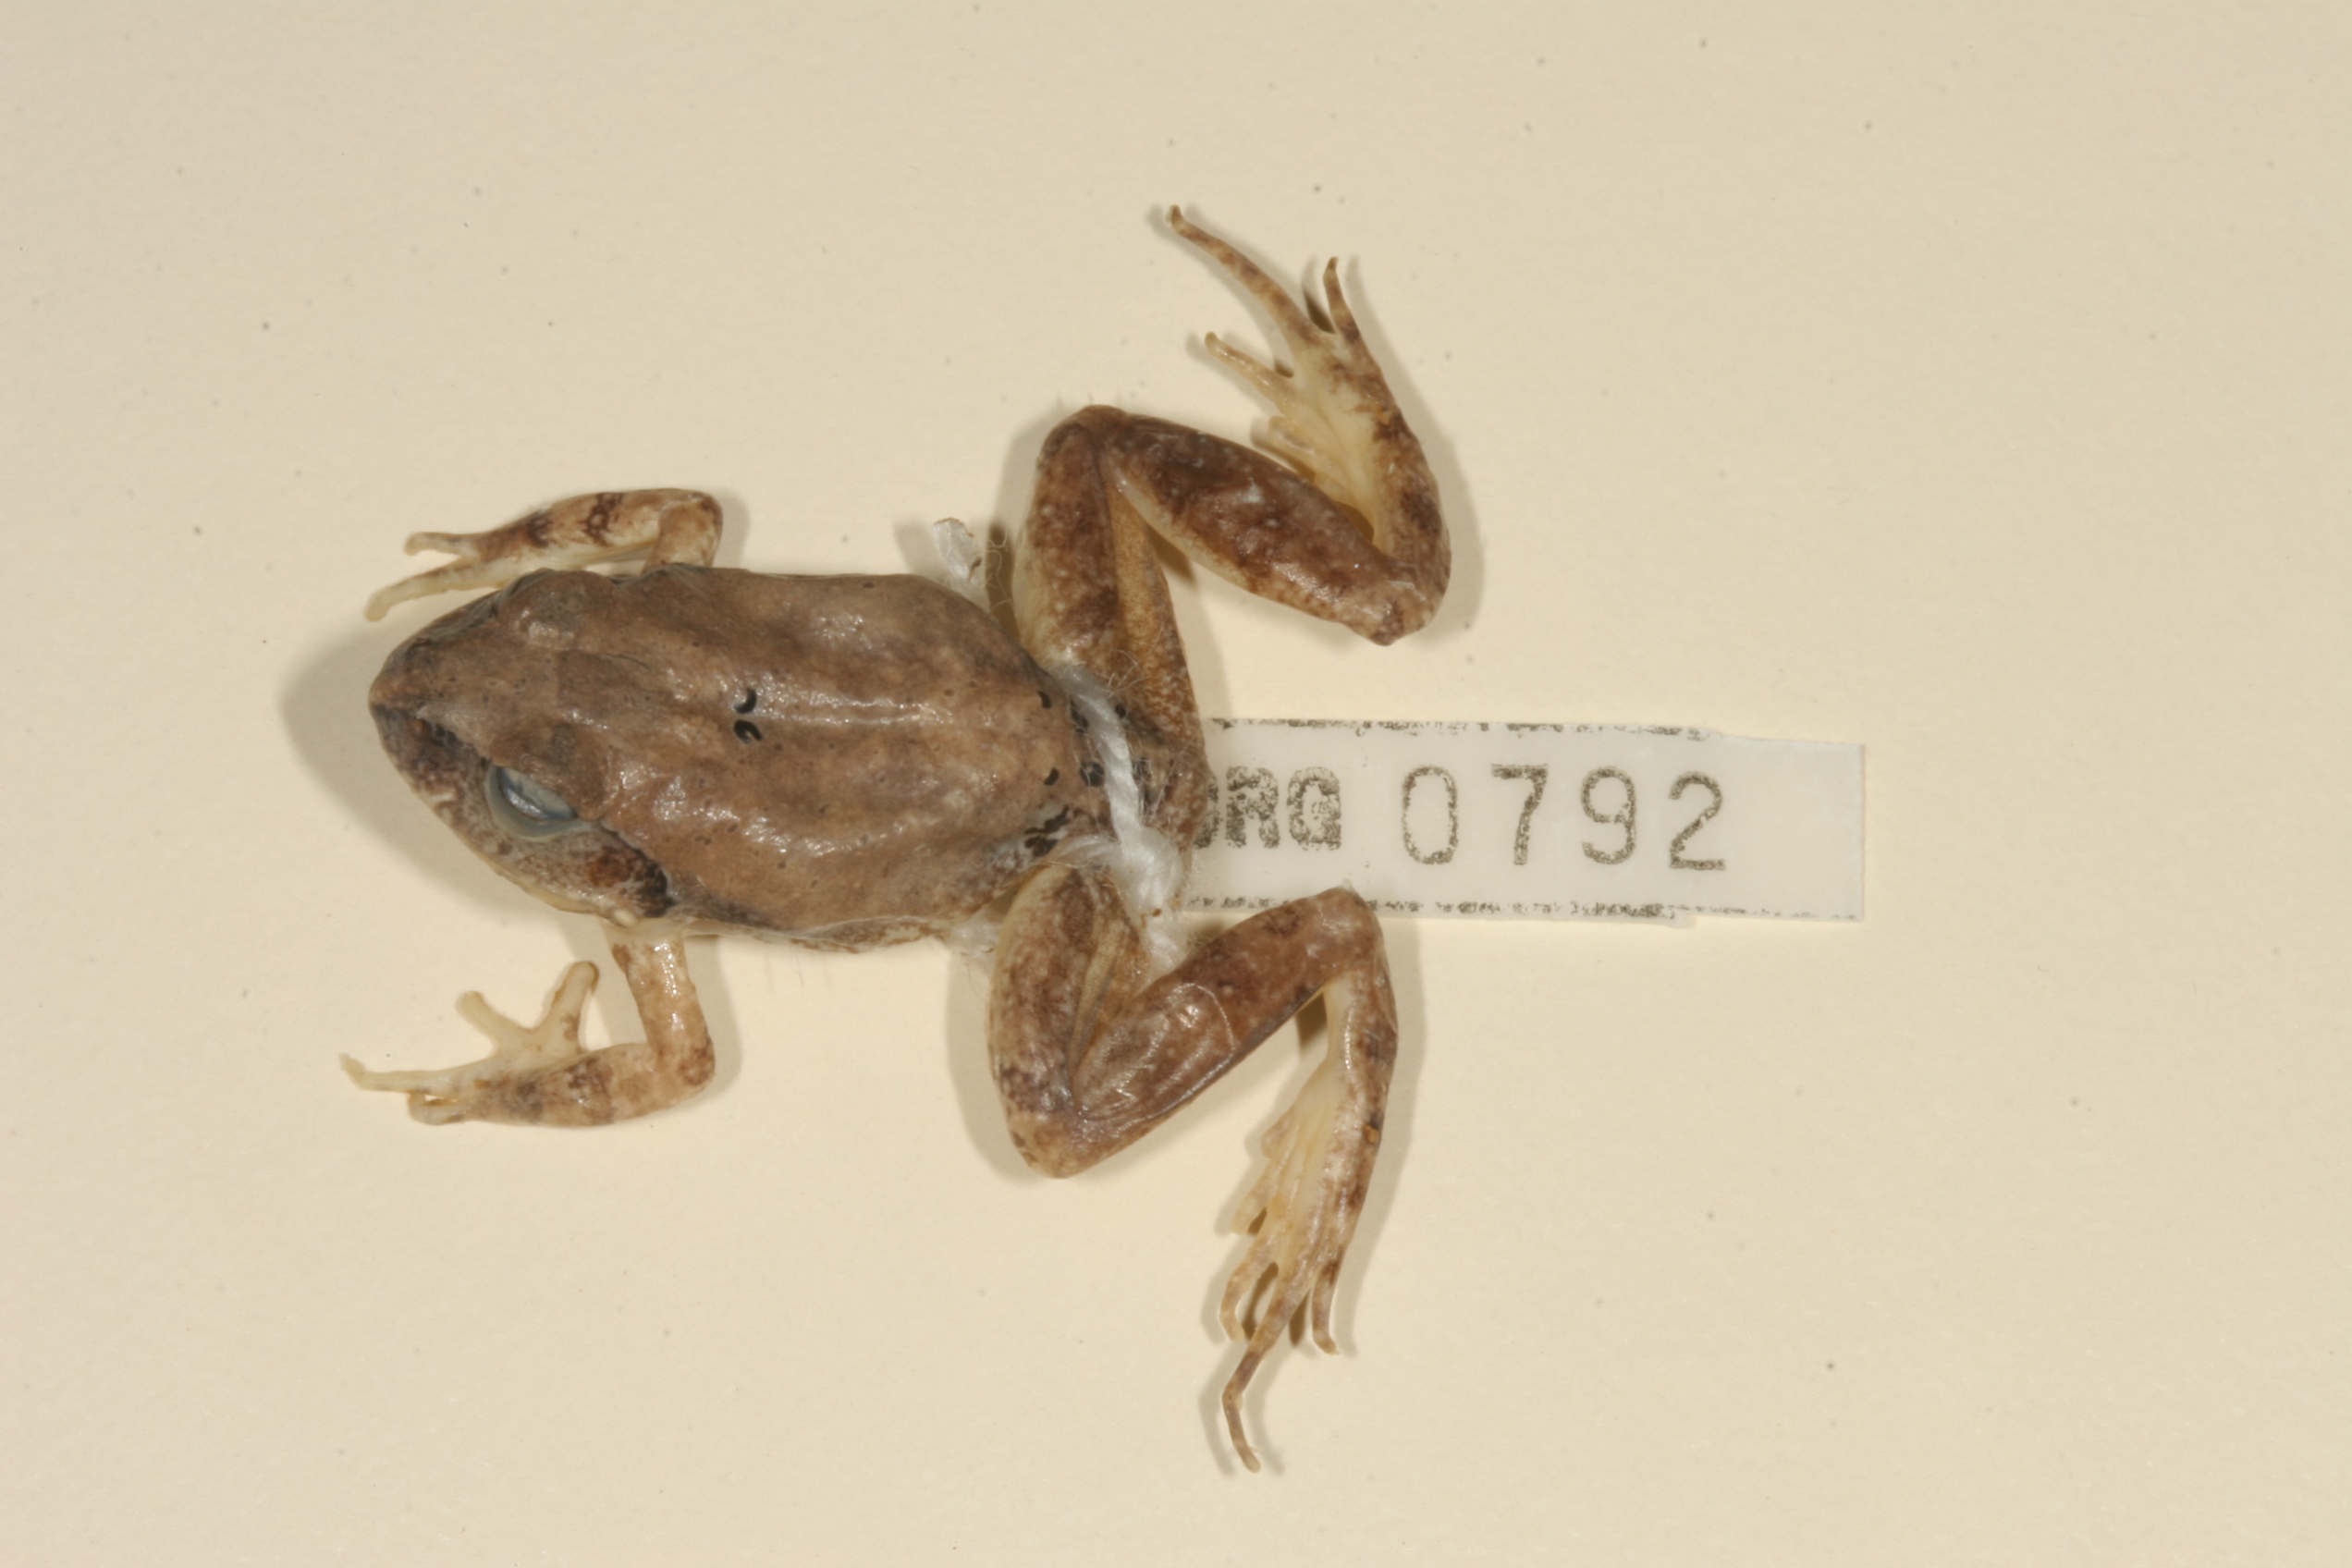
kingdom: Animalia
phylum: Chordata
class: Amphibia
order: Anura
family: Pyxicephalidae
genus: Tomopterna
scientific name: Tomopterna marmorata
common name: Russet-backed sand frog
